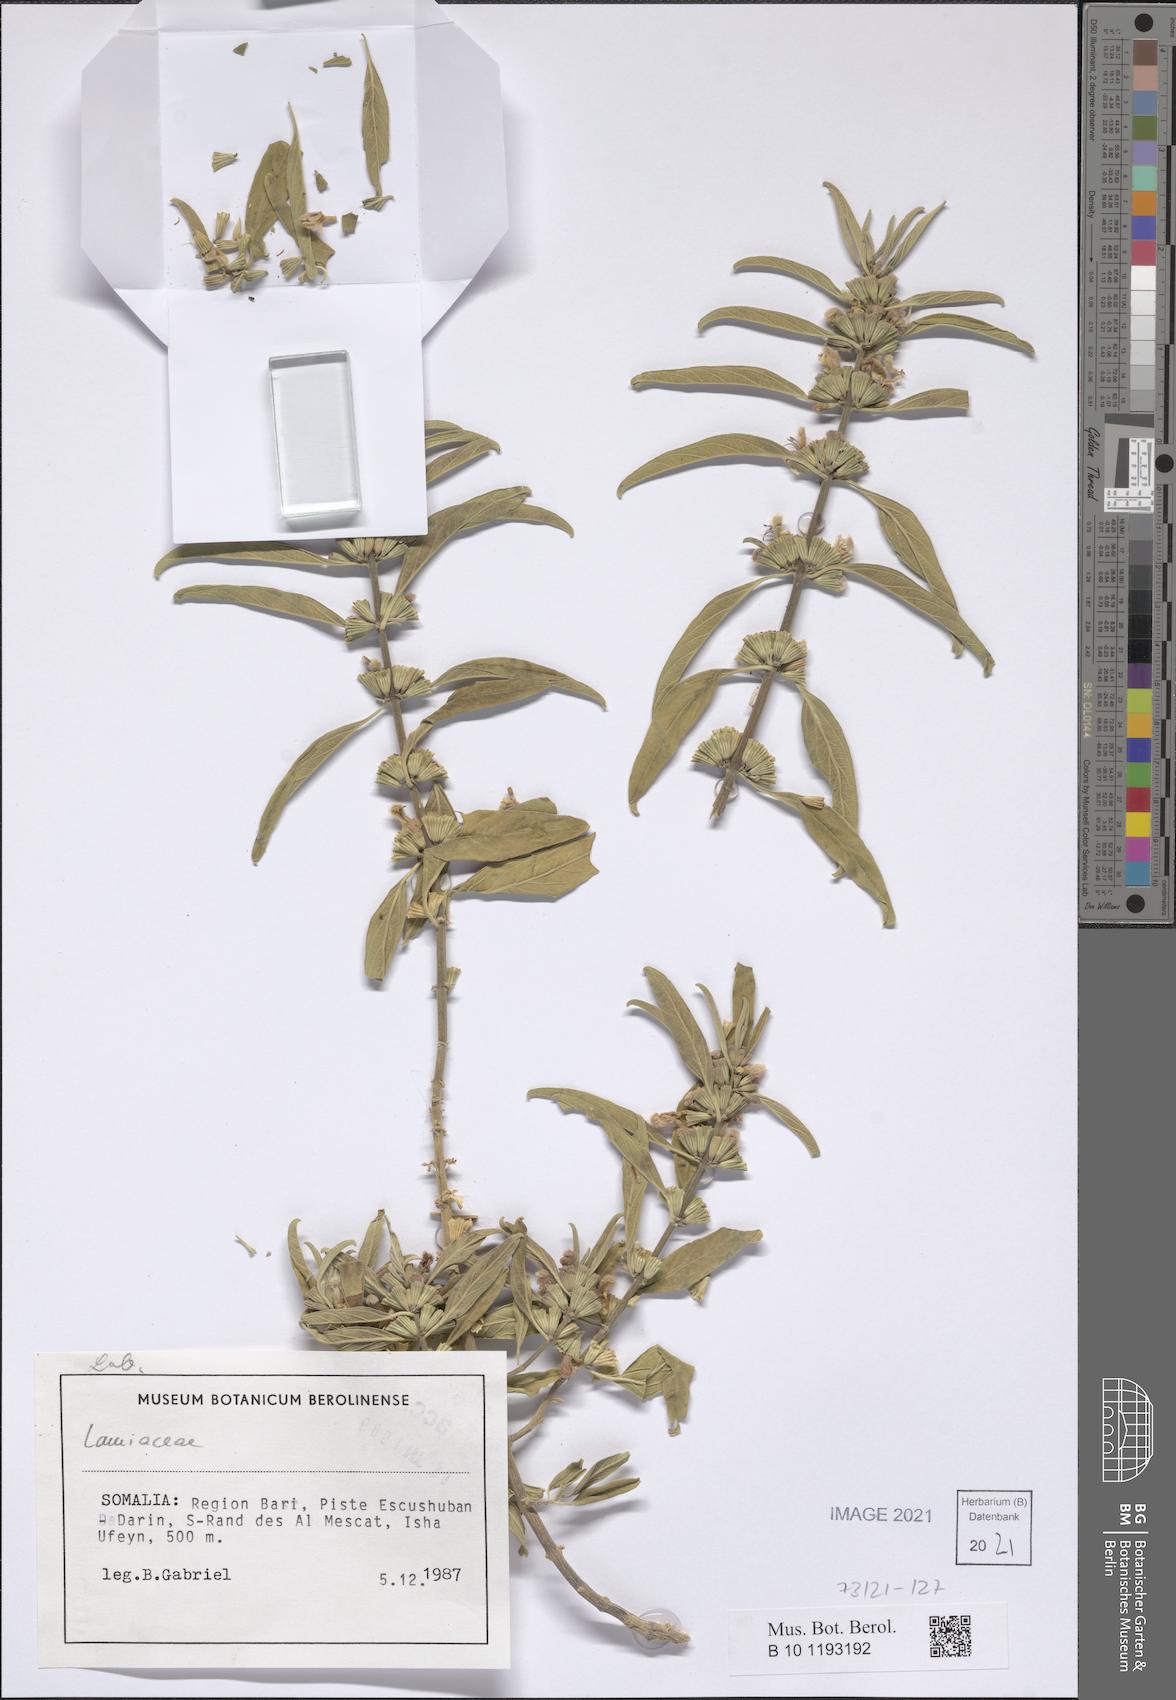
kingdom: Plantae
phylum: Tracheophyta
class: Magnoliopsida
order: Lamiales
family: Lamiaceae
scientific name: Lamiaceae
